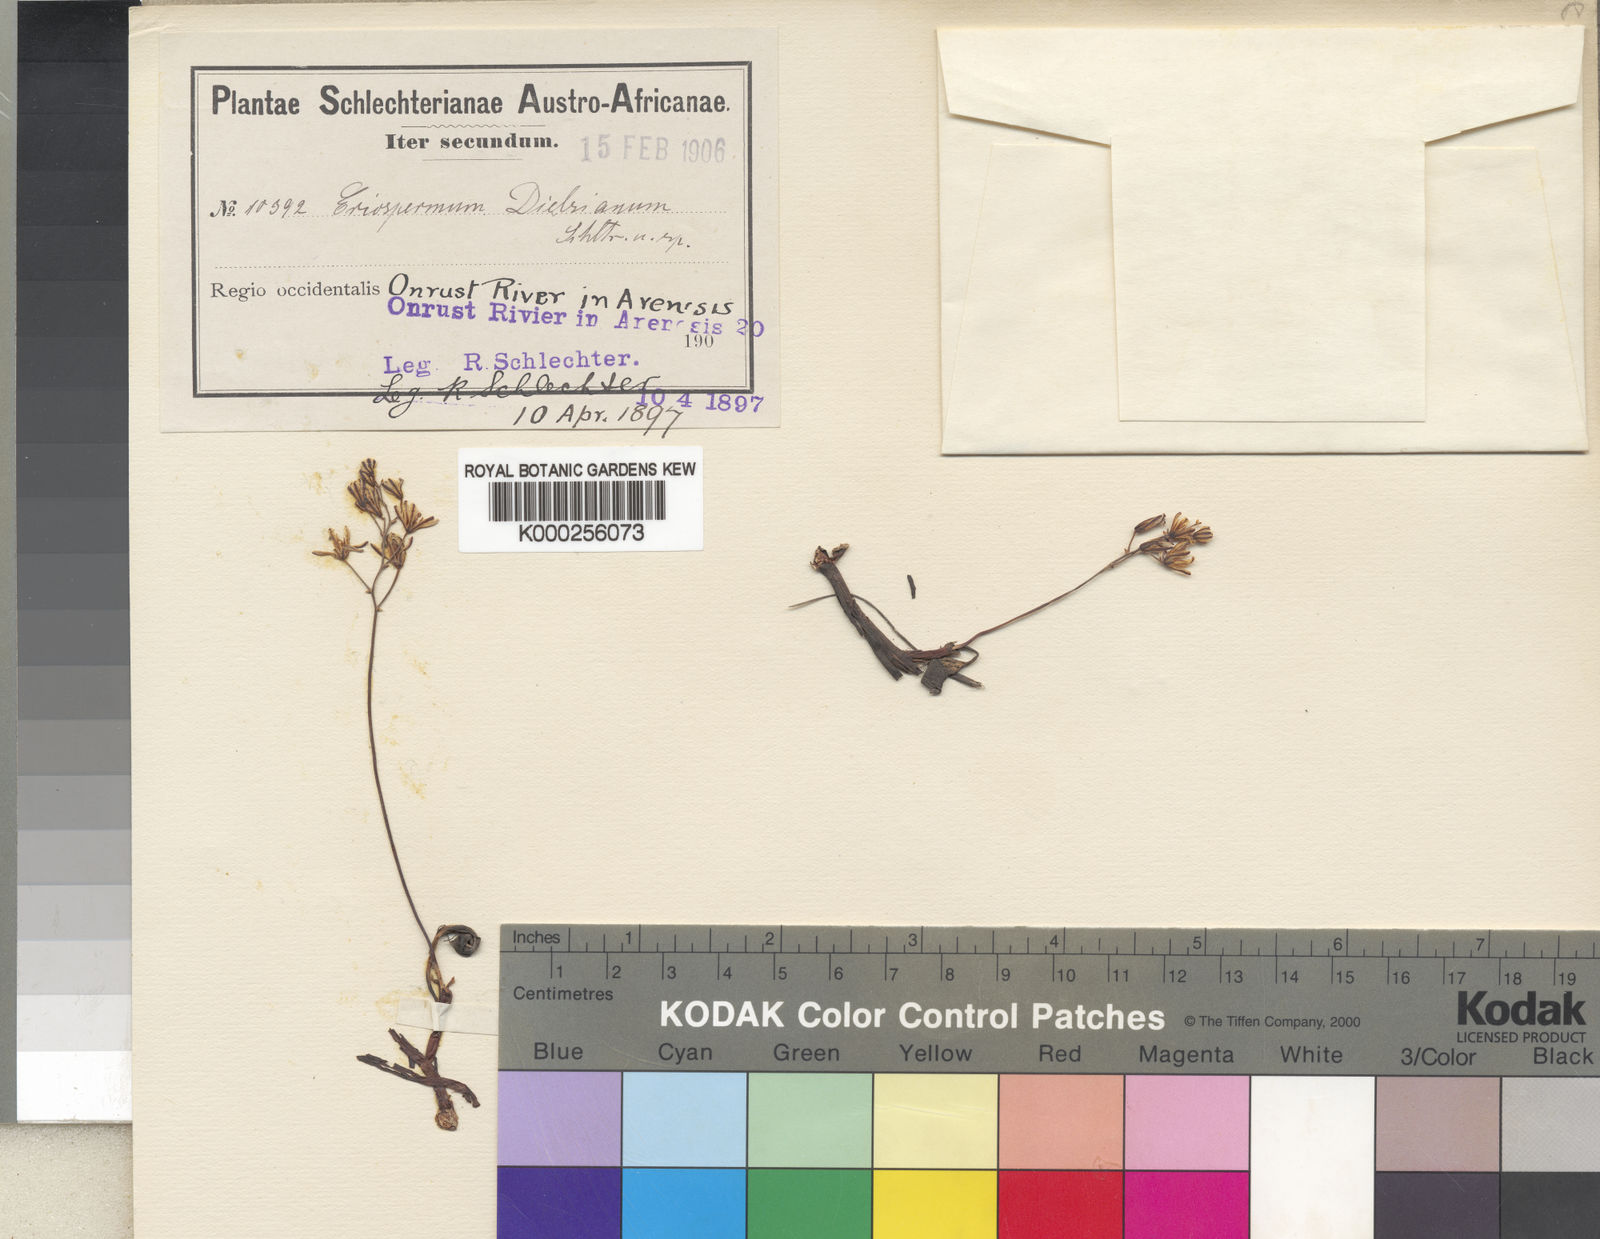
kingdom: Plantae
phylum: Tracheophyta
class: Liliopsida
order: Asparagales
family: Asparagaceae
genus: Eriospermum
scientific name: Eriospermum dielsianum
